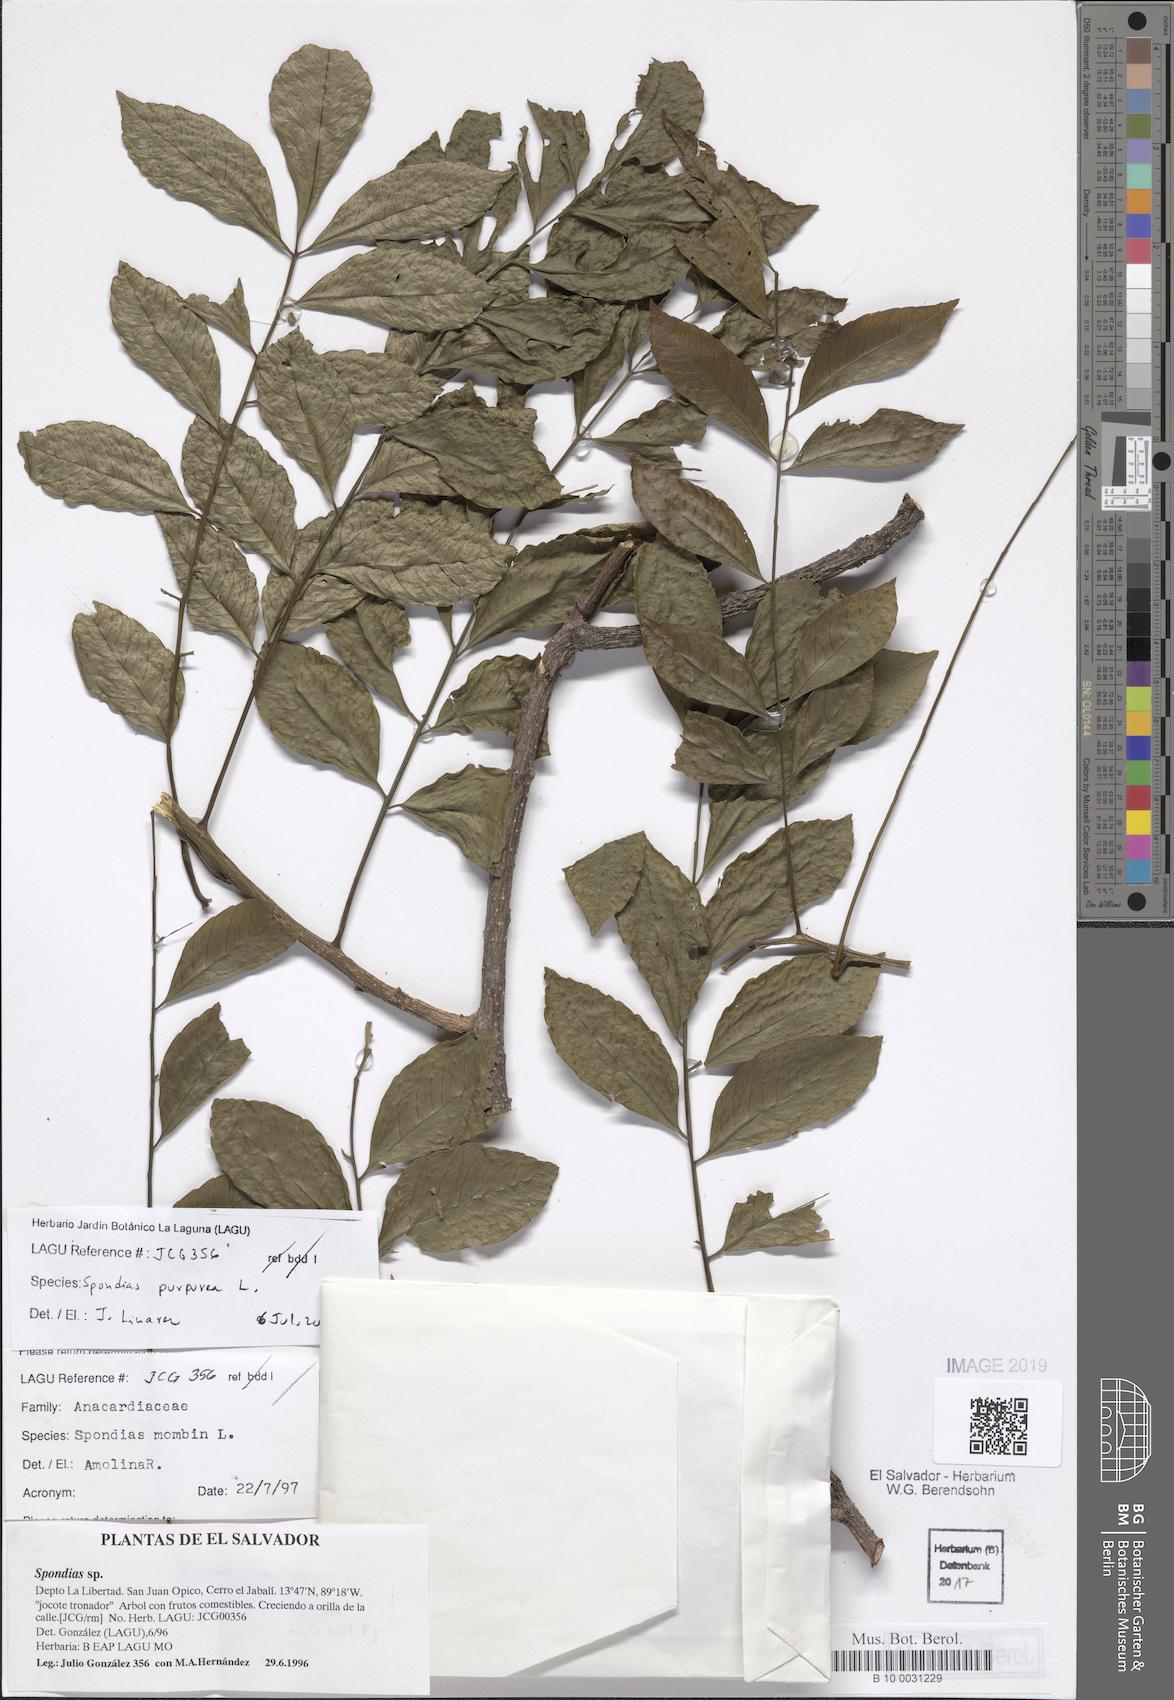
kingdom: Plantae
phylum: Tracheophyta
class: Magnoliopsida
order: Sapindales
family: Anacardiaceae
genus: Spondias
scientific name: Spondias purpurea
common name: Purple mombin
